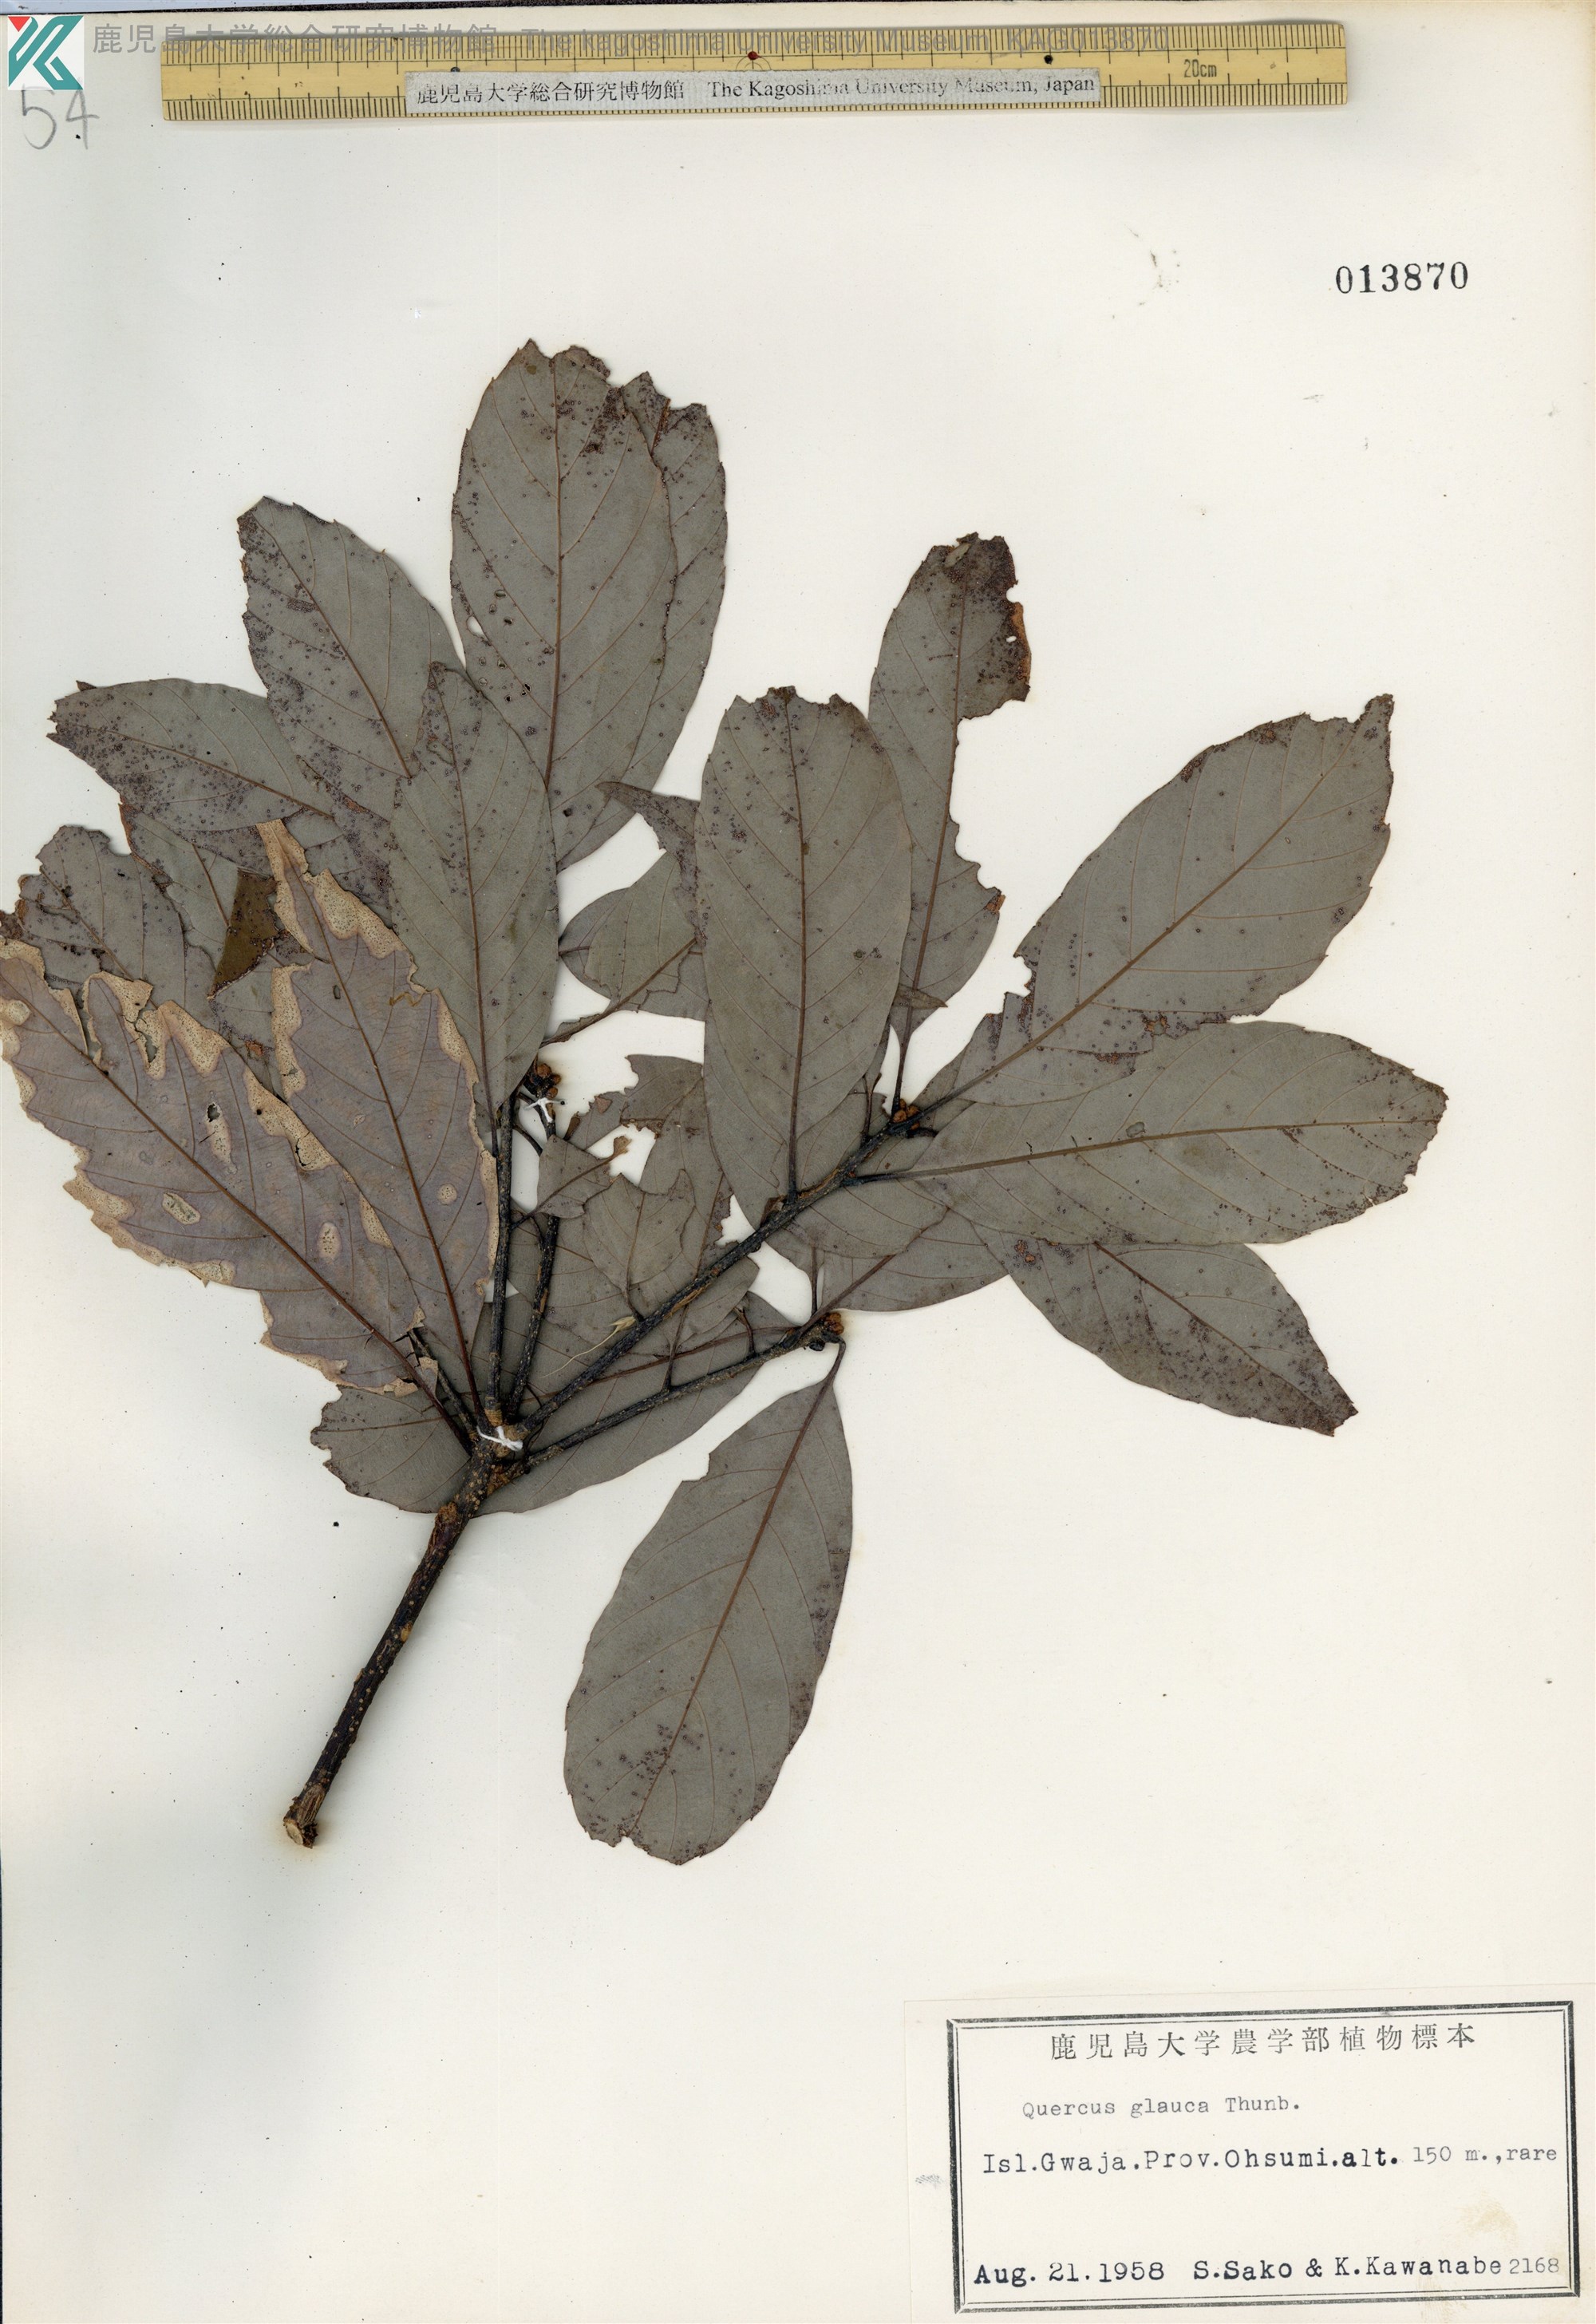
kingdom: Plantae
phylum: Tracheophyta
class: Magnoliopsida
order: Fagales
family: Fagaceae
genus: Quercus
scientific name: Quercus glauca
